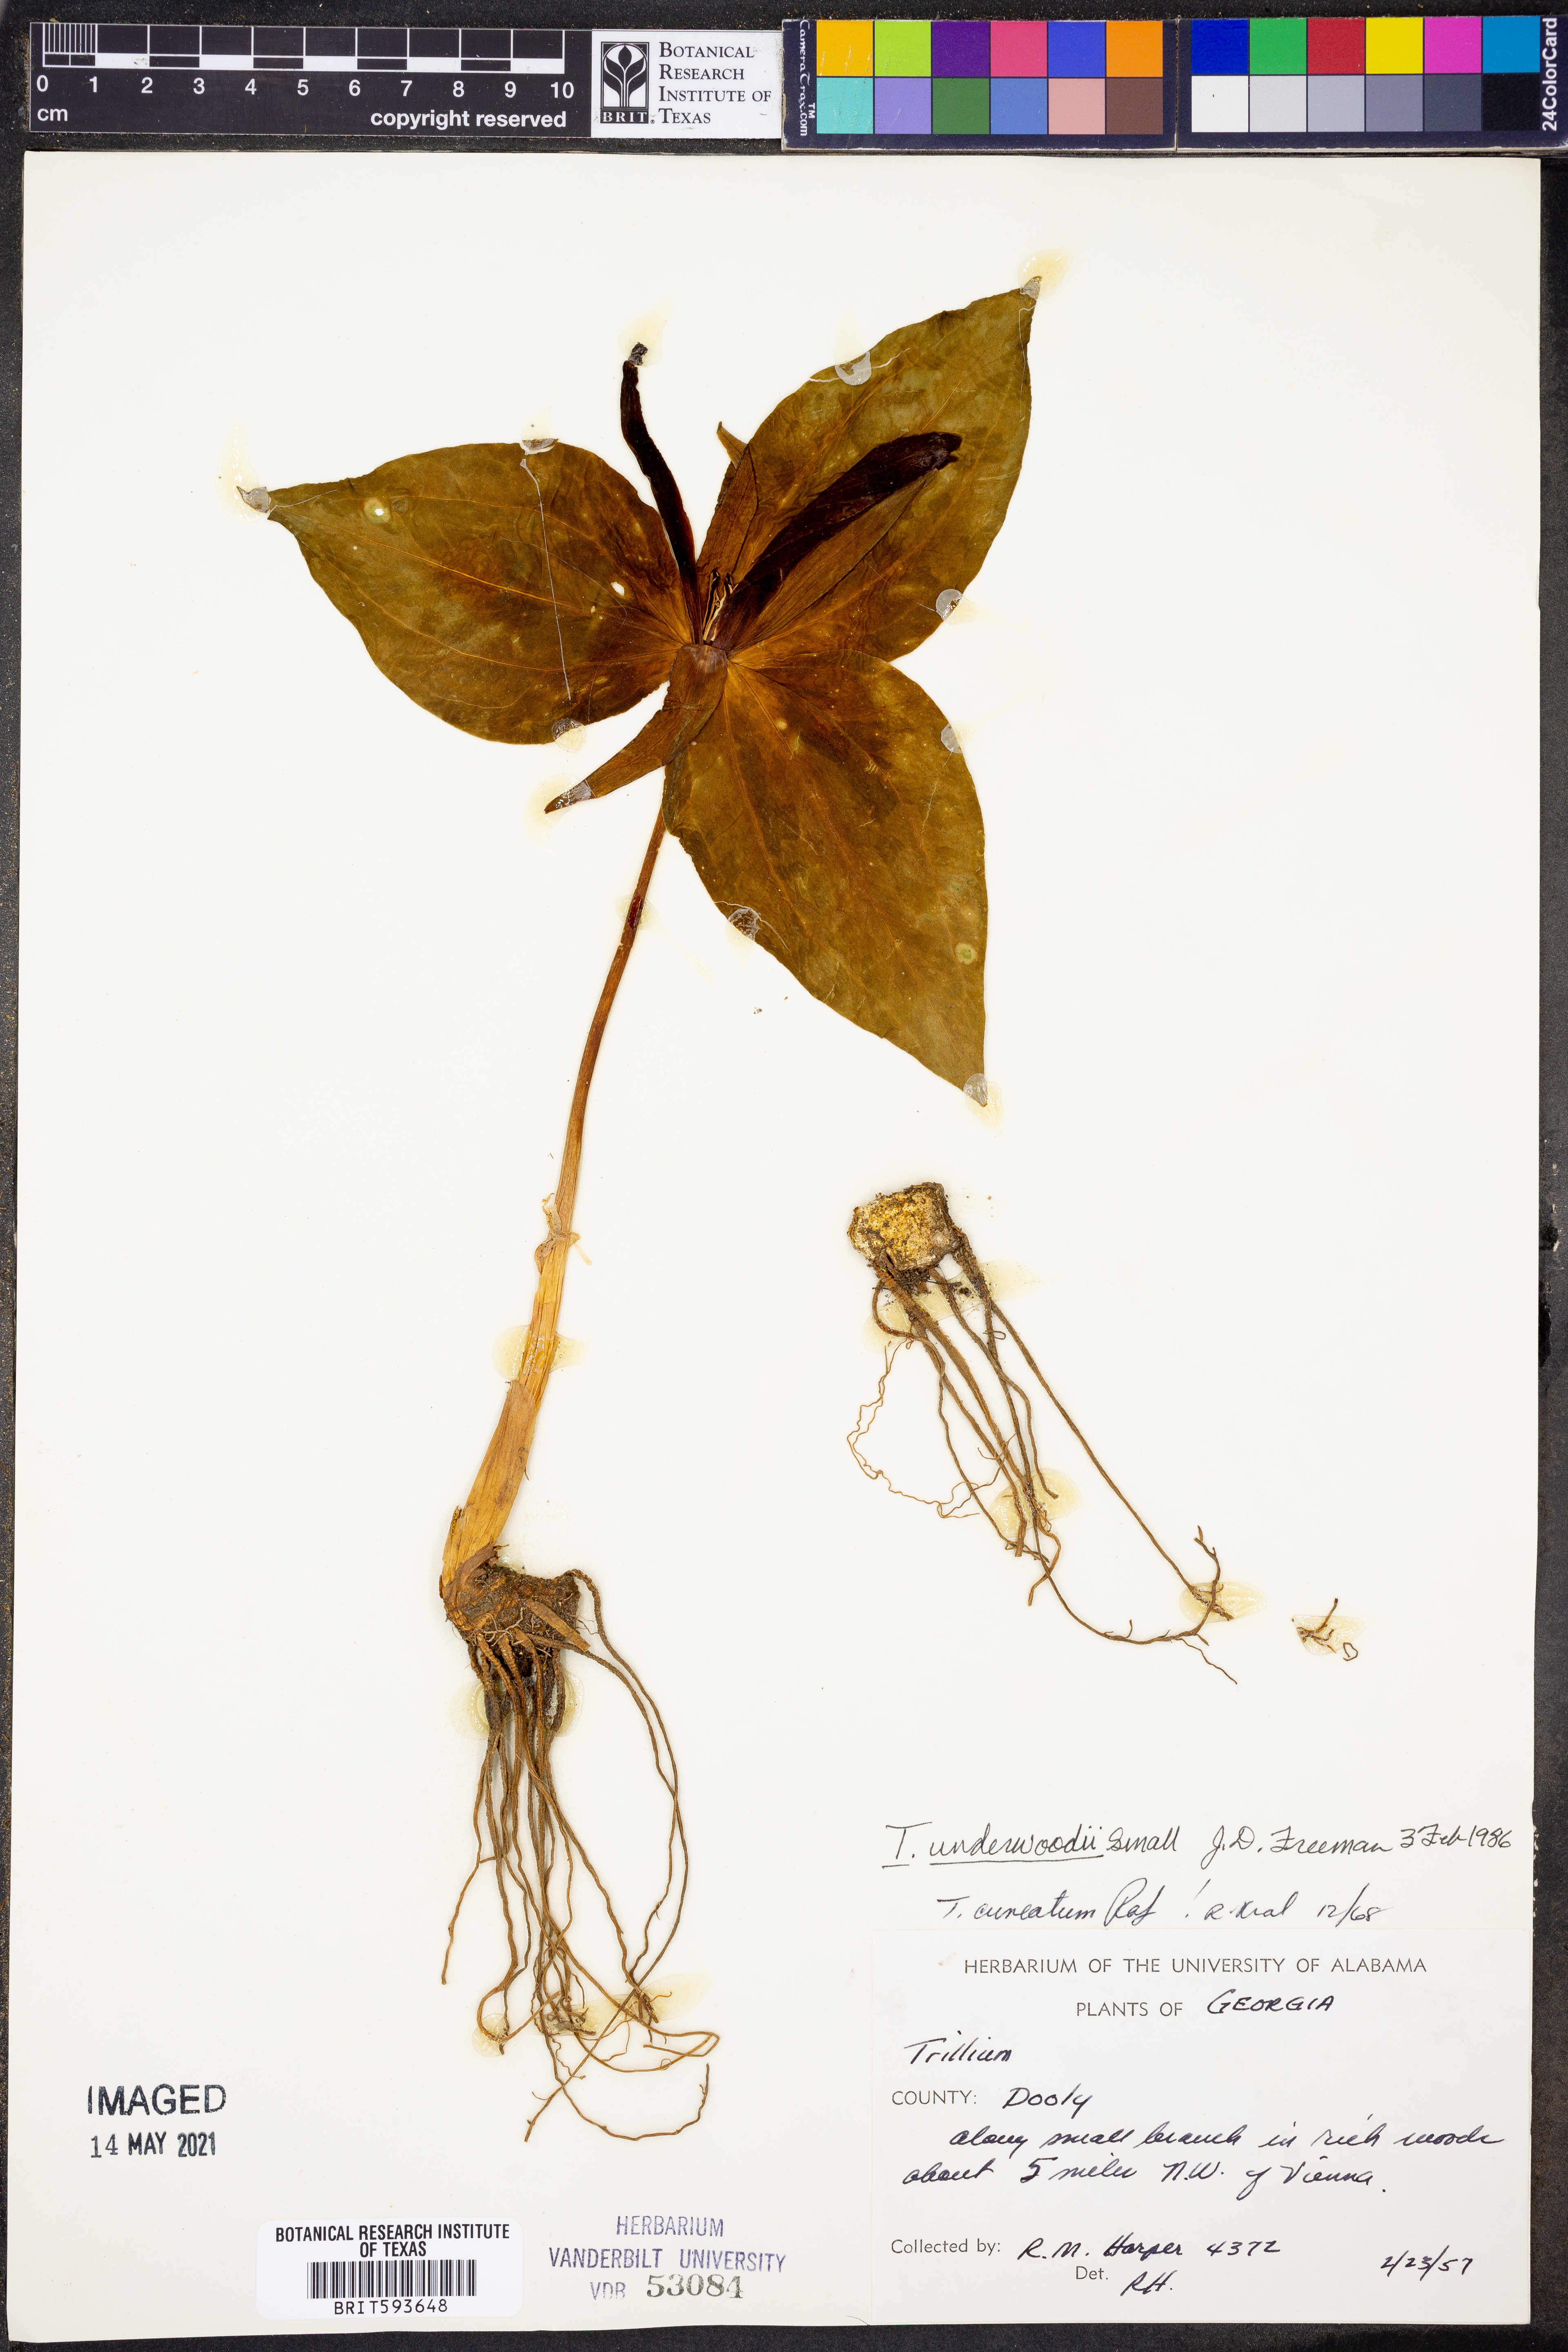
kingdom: Plantae
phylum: Tracheophyta
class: Liliopsida
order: Liliales
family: Melanthiaceae
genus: Trillium
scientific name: Trillium underwoodii
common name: Longbract wakerobin
